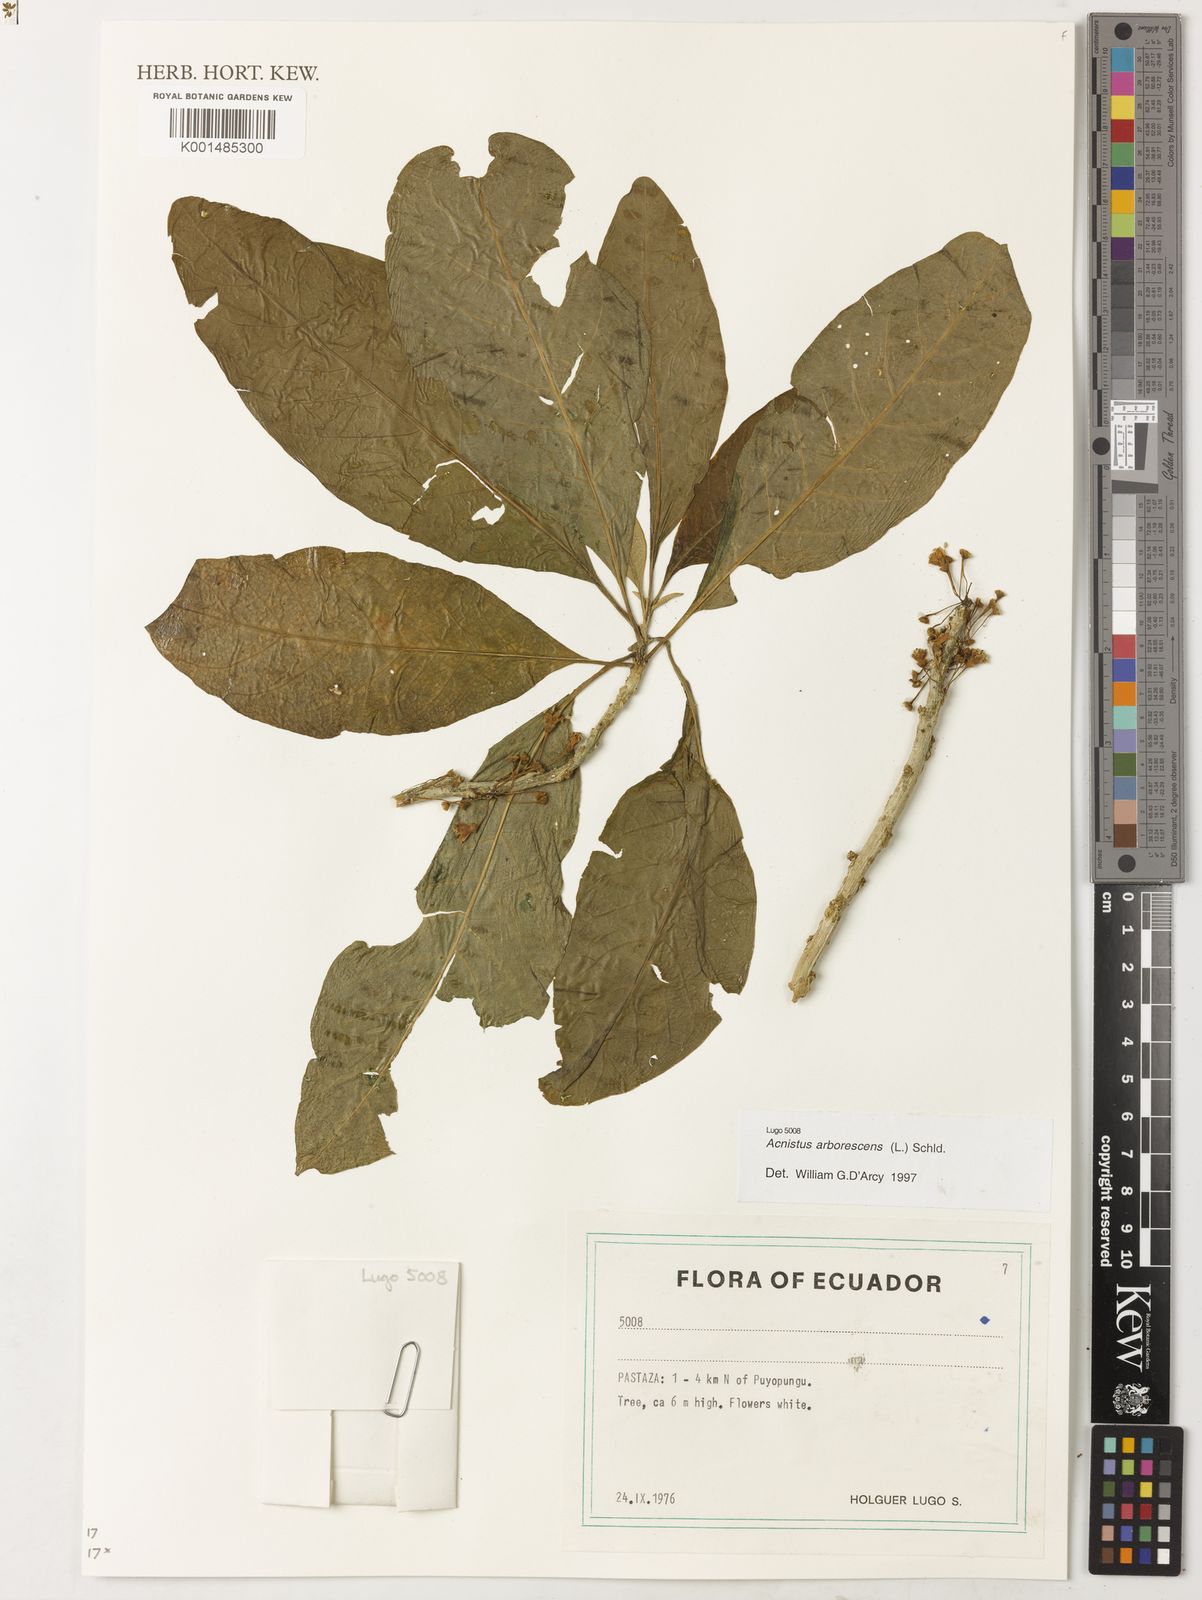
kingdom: Plantae
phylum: Tracheophyta
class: Magnoliopsida
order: Solanales
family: Solanaceae
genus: Iochroma
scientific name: Iochroma arborescens
